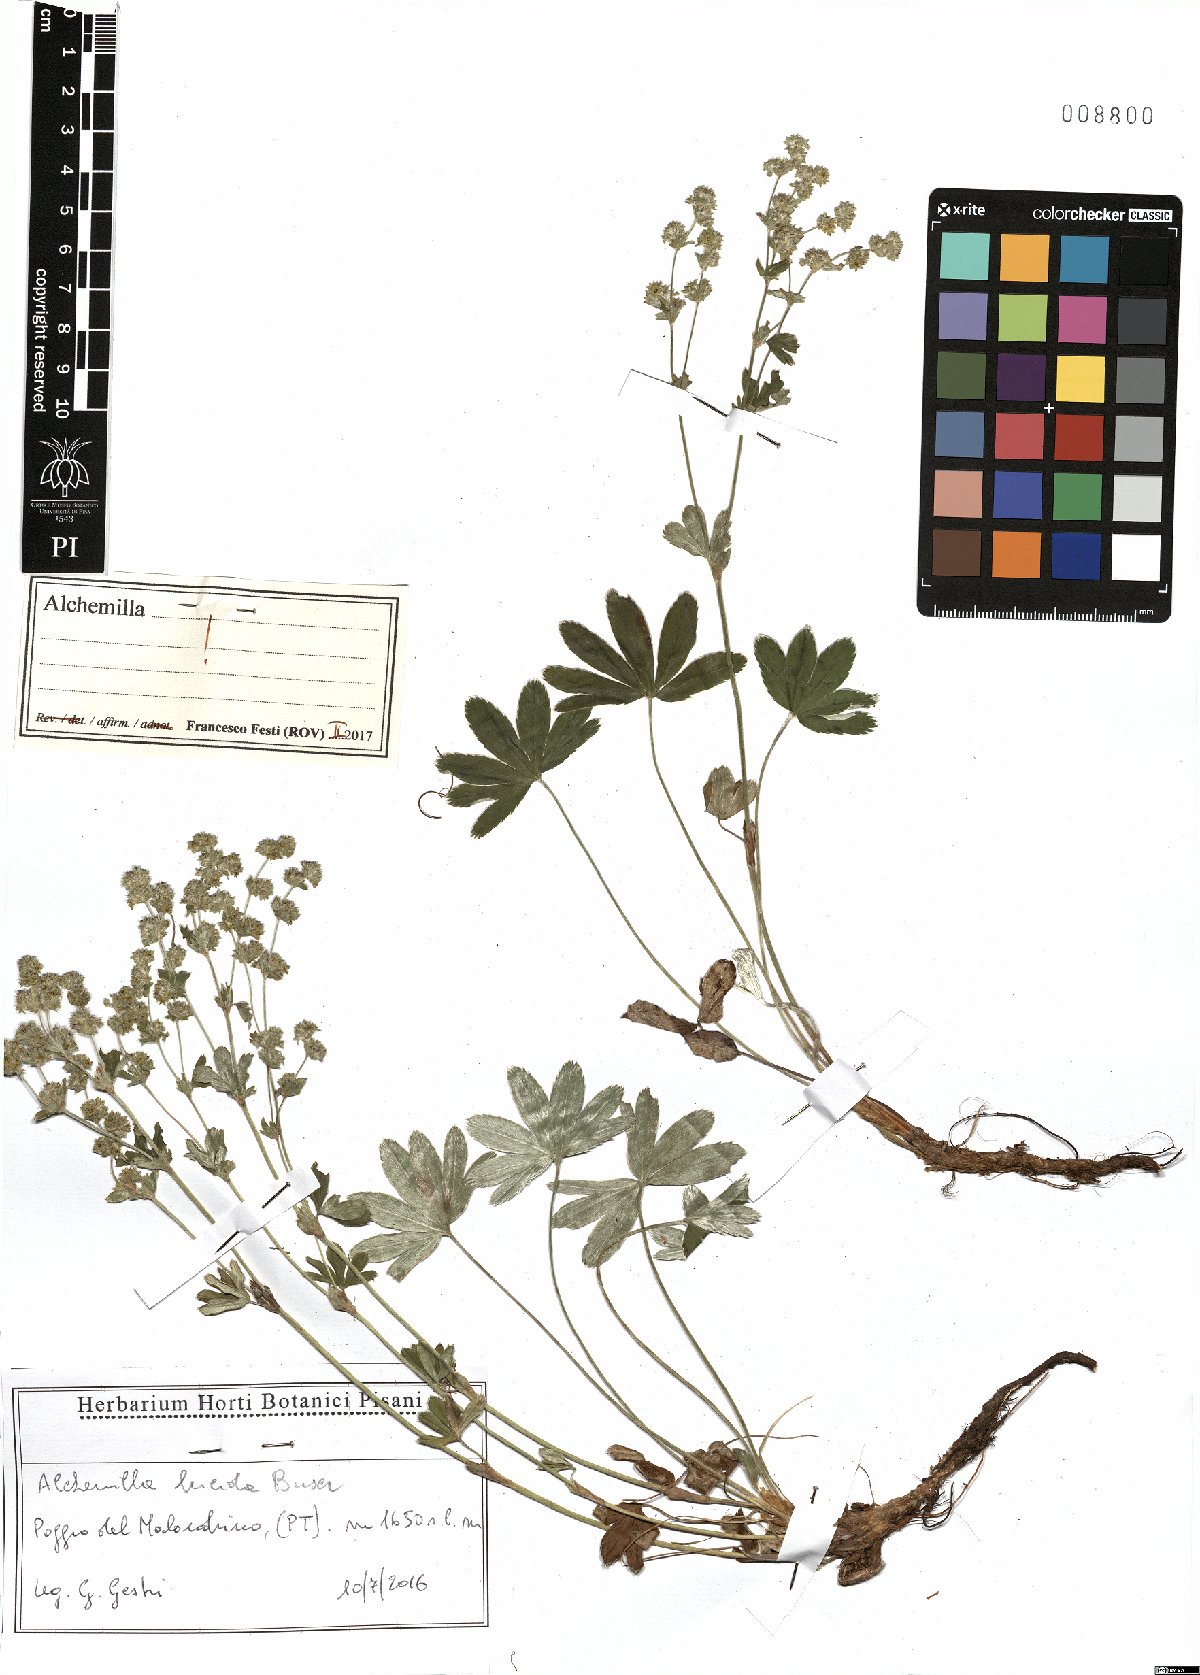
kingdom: Plantae
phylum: Tracheophyta
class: Magnoliopsida
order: Rosales
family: Rosaceae
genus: Alchemilla
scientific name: Alchemilla lucida
